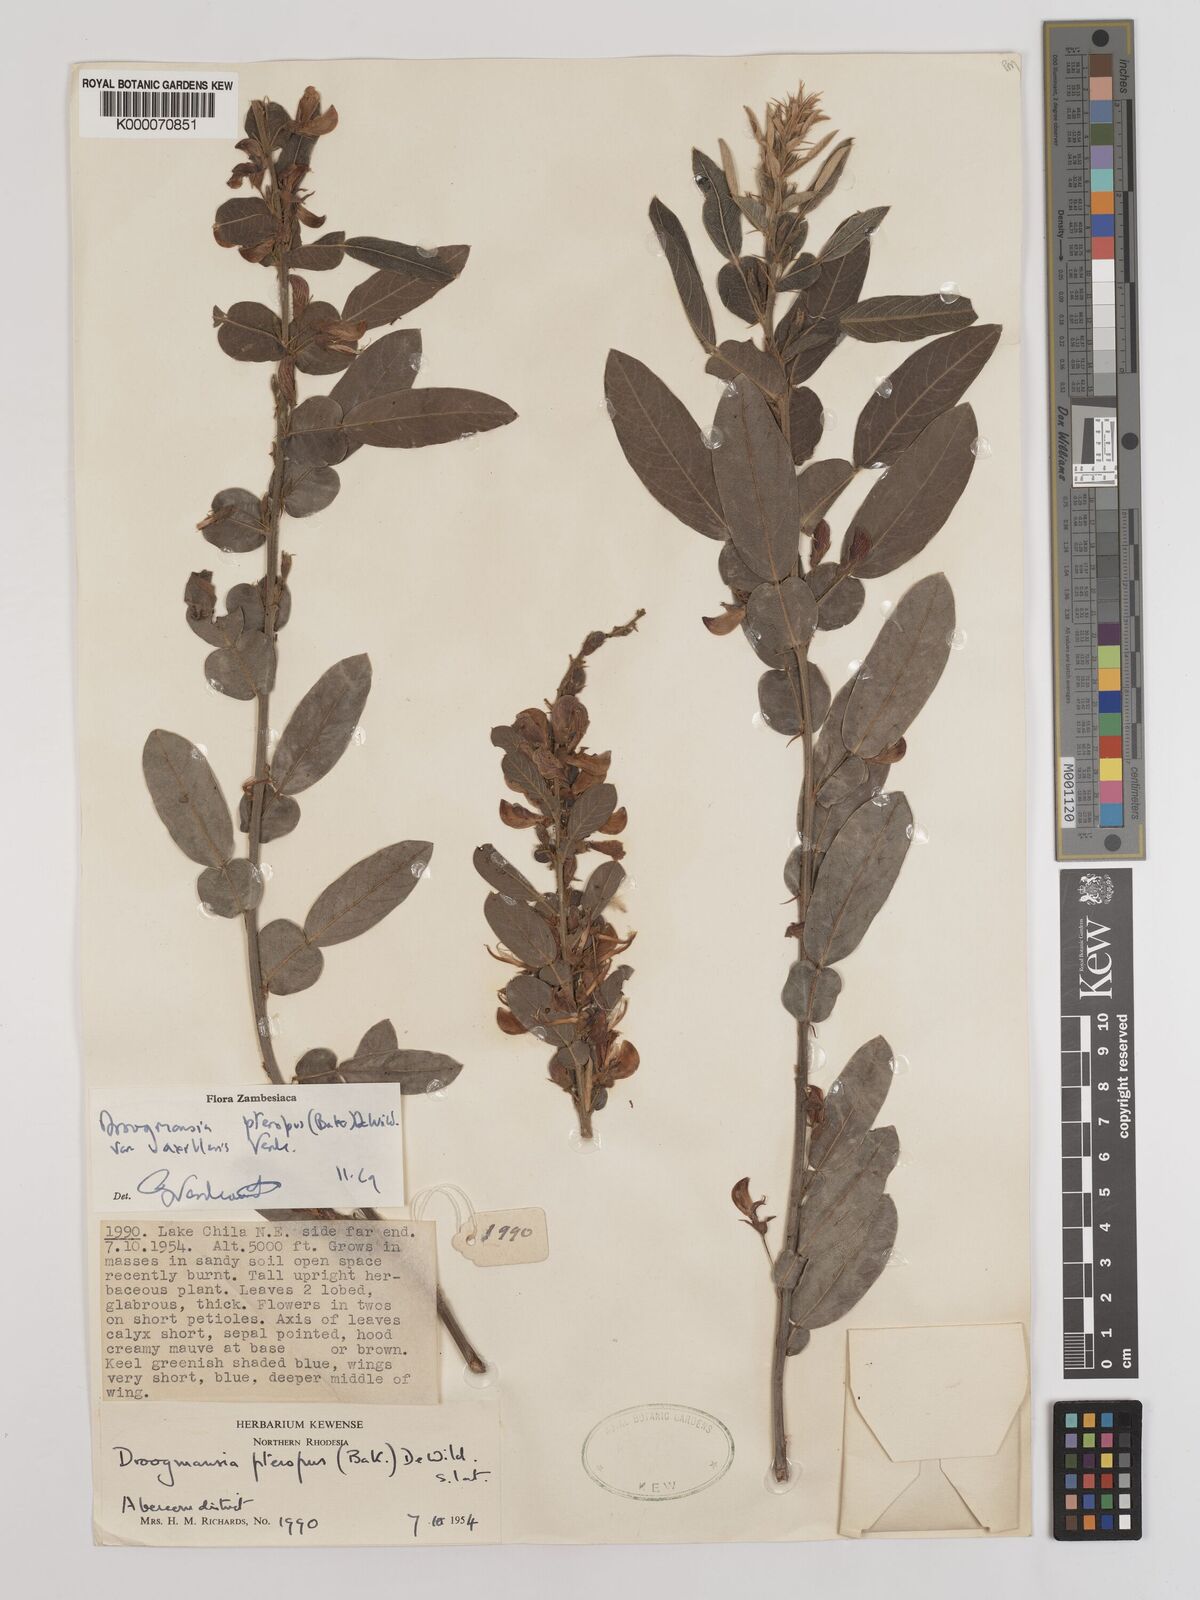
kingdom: Plantae
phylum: Tracheophyta
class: Magnoliopsida
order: Fabales
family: Fabaceae
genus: Droogmansia
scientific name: Droogmansia pteropus
